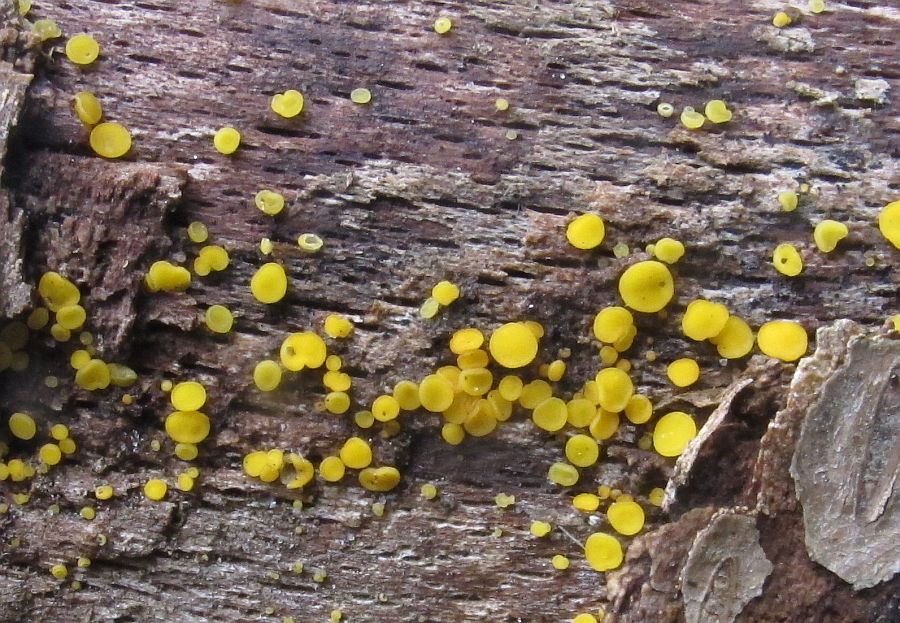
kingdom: Fungi
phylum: Ascomycota
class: Leotiomycetes
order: Helotiales
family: Pezizellaceae
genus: Calycina
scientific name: Calycina citrina
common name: almindelig gulskive
